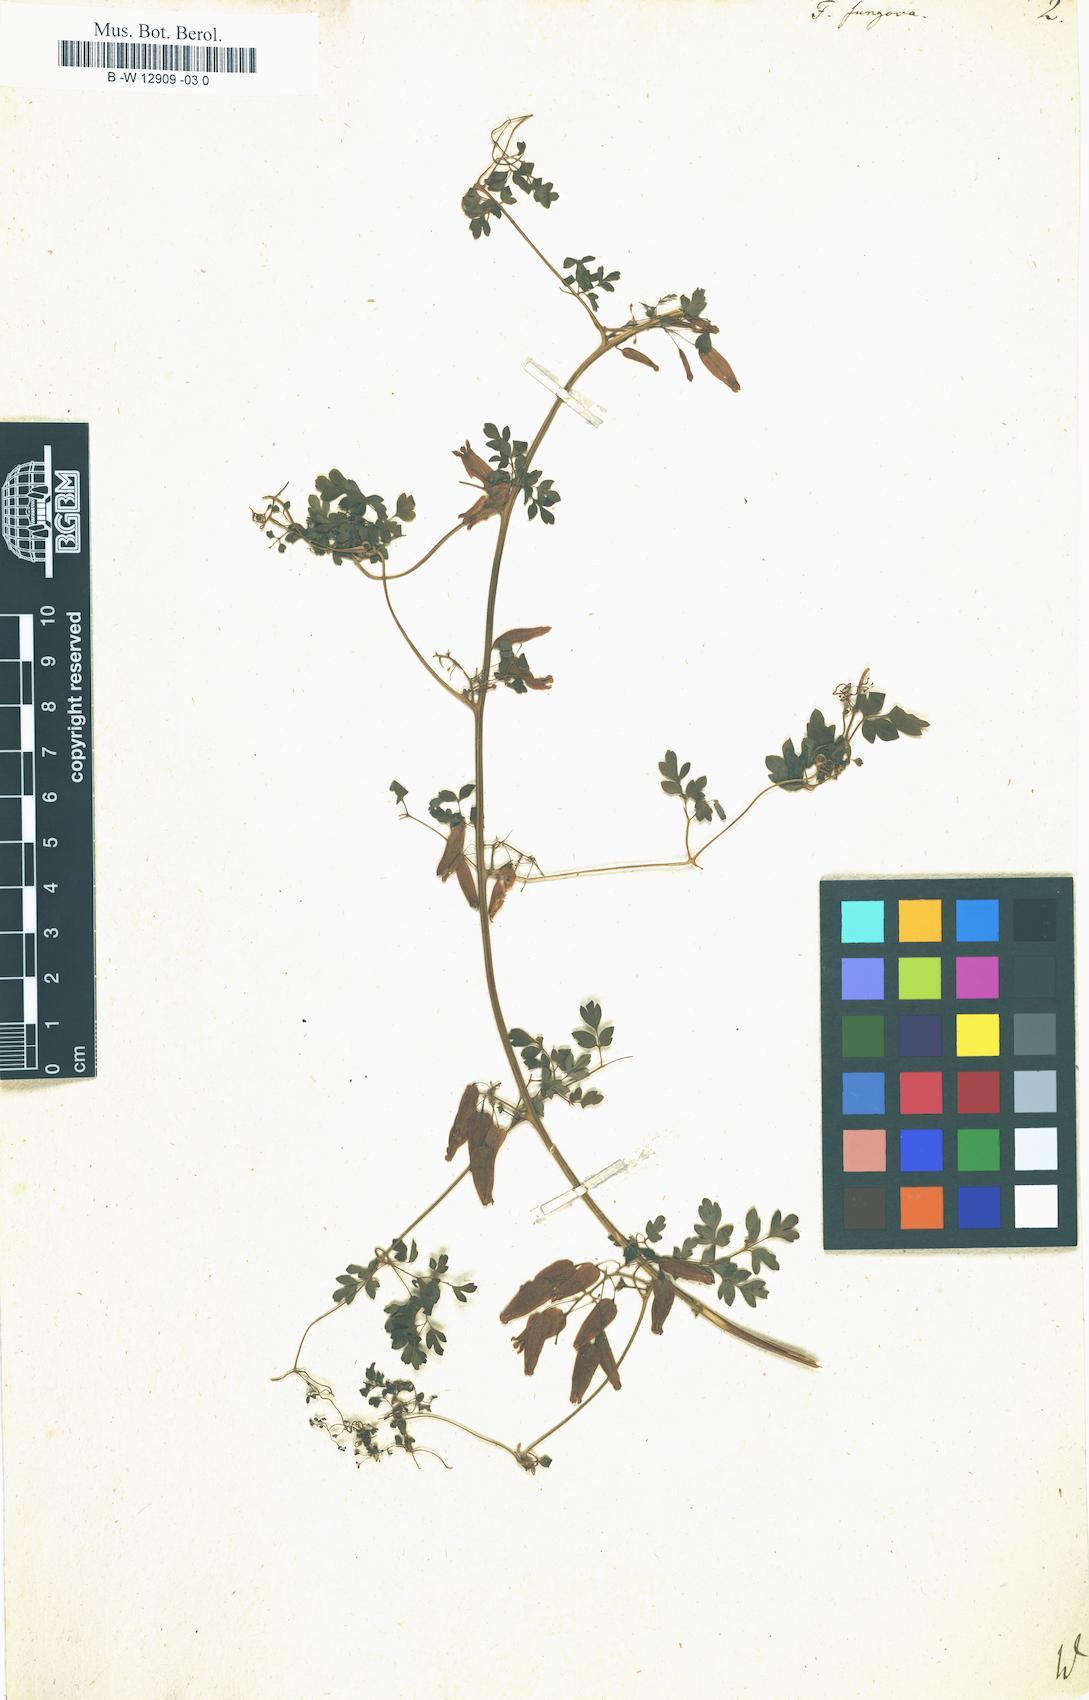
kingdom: Plantae
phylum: Tracheophyta
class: Magnoliopsida
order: Ranunculales
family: Papaveraceae
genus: Adlumia
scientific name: Adlumia fungosa
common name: Mountain-fringe
